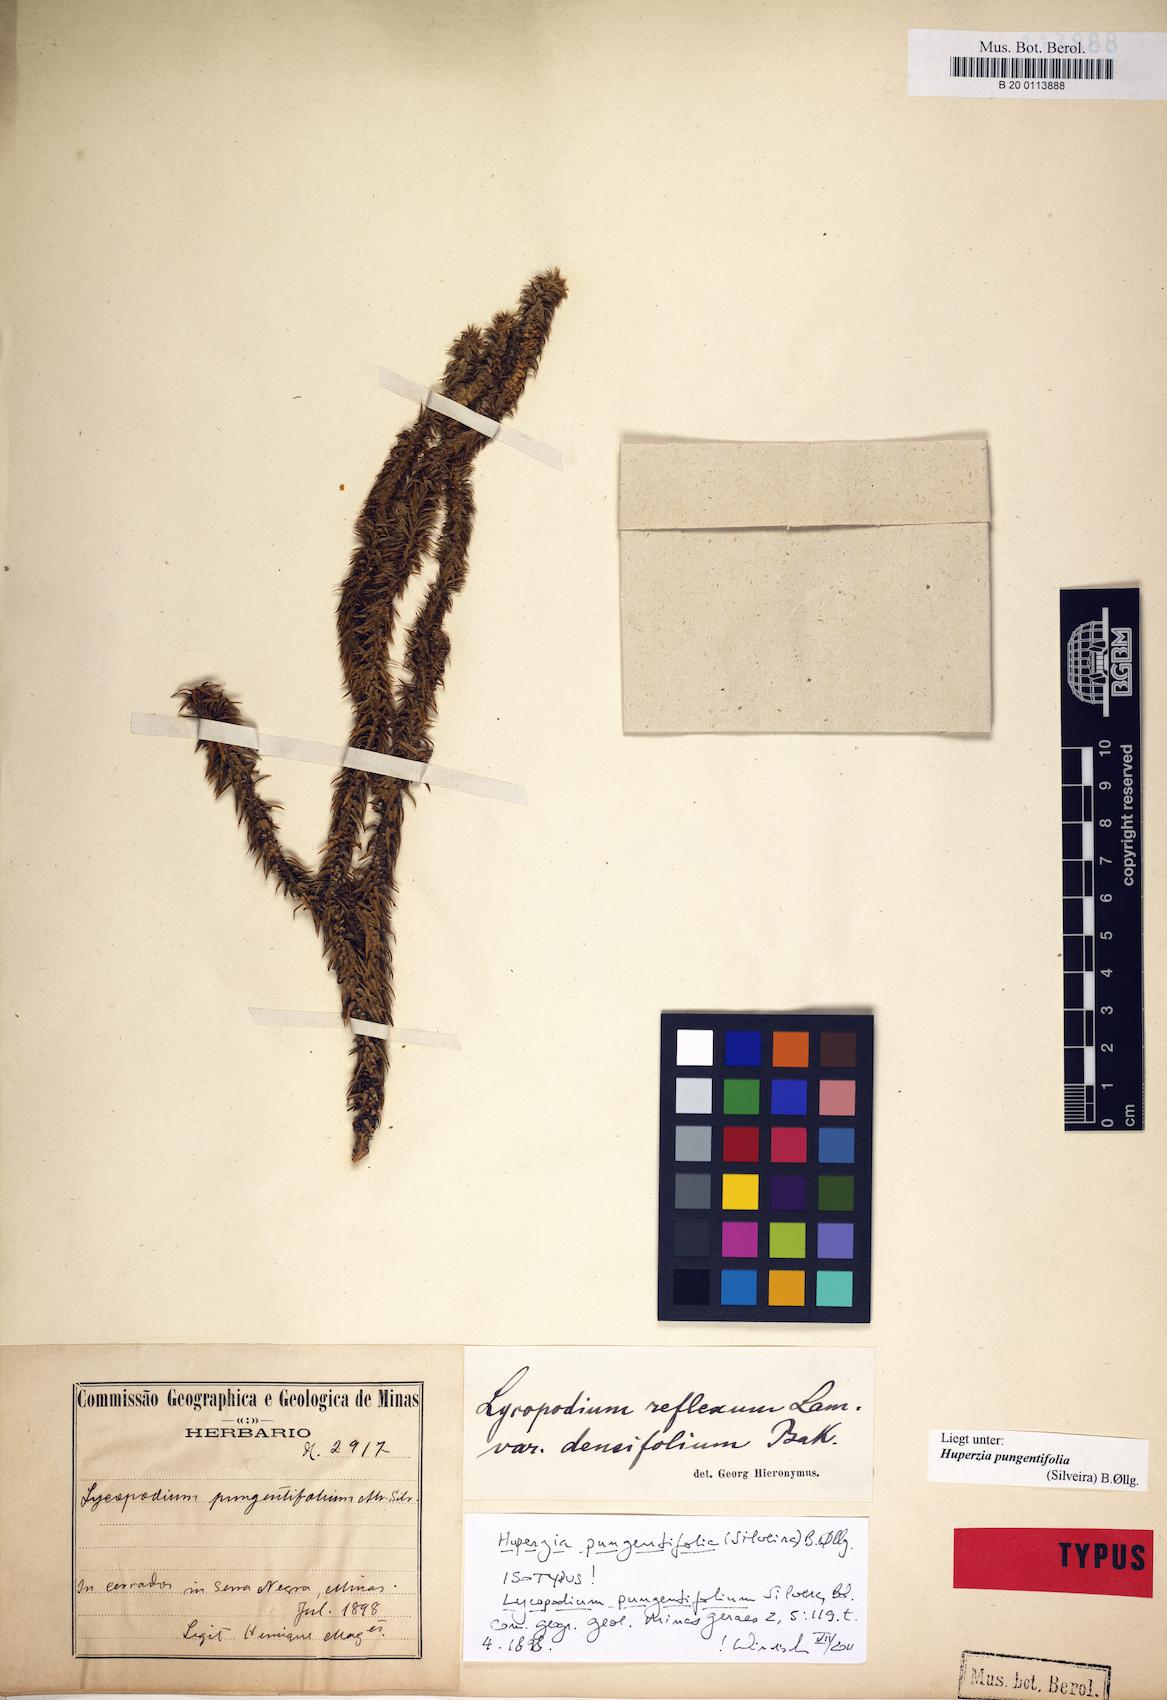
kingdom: Plantae
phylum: Tracheophyta
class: Lycopodiopsida
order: Lycopodiales
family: Lycopodiaceae
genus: Phlegmariurus
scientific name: Phlegmariurus pungentifolius
